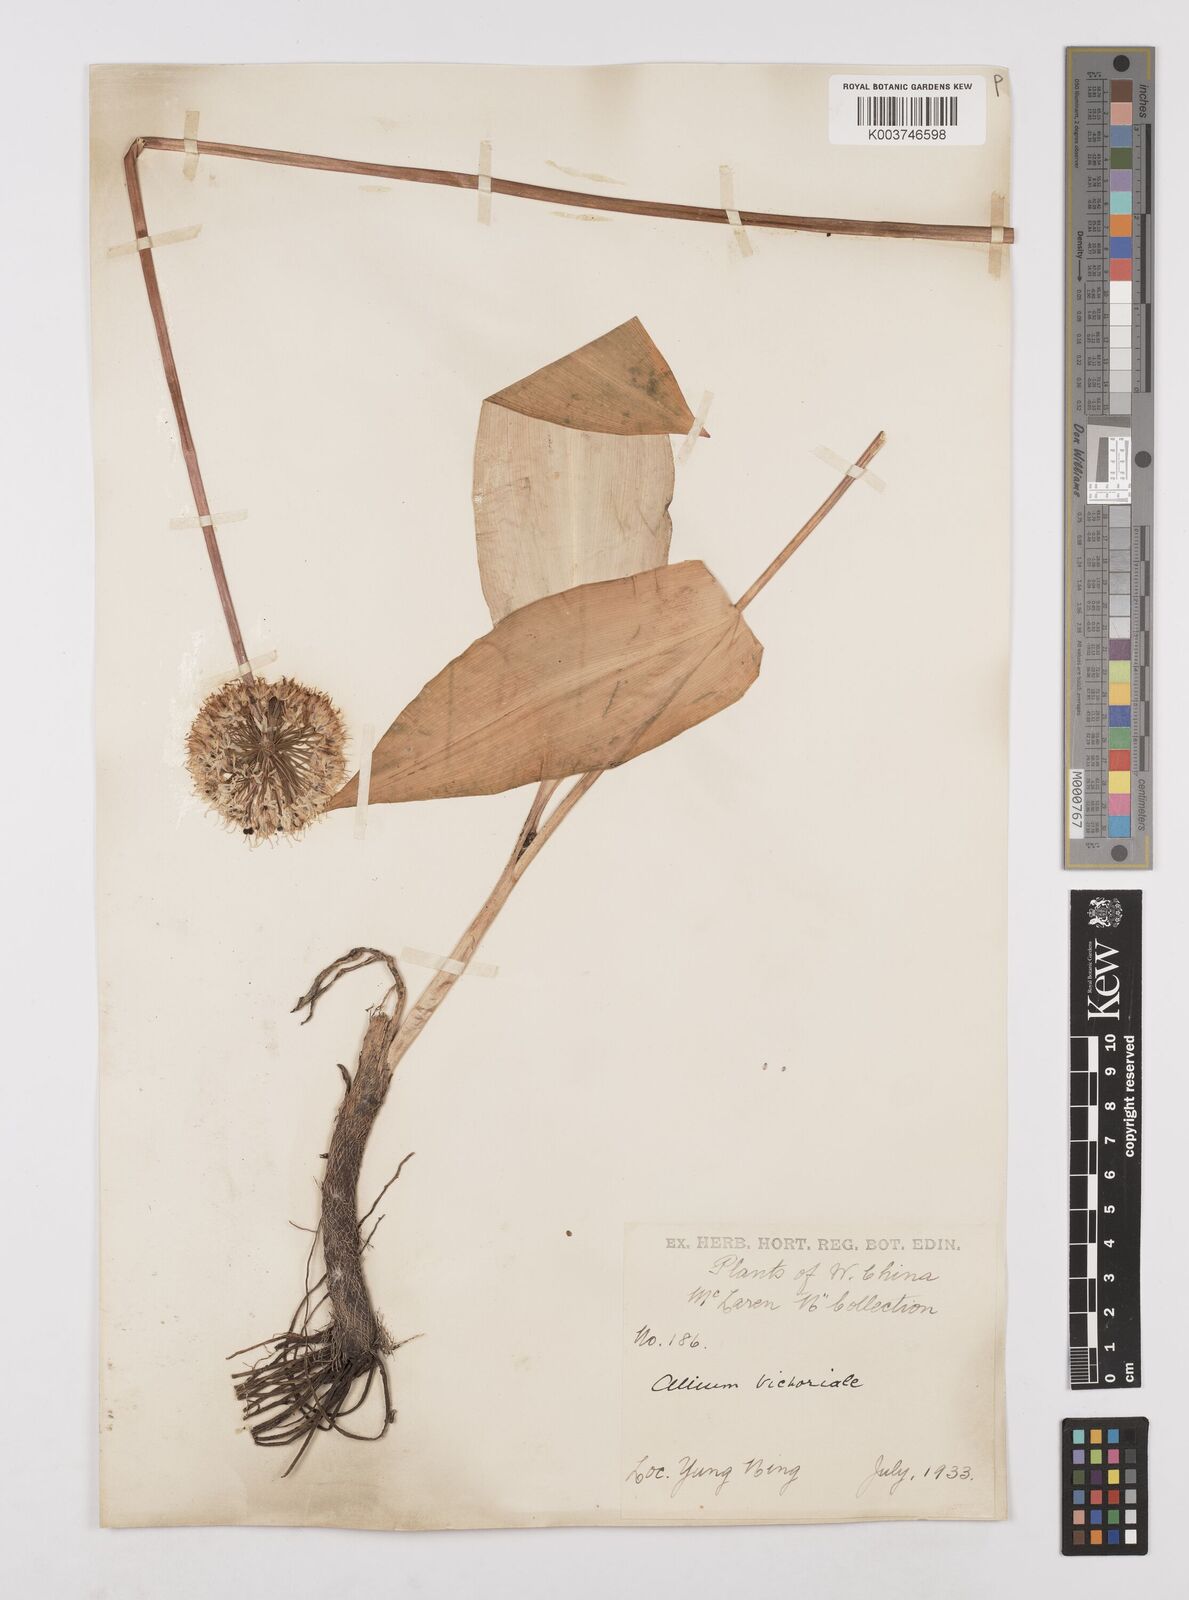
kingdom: Plantae
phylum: Tracheophyta
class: Liliopsida
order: Asparagales
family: Amaryllidaceae
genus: Allium
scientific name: Allium victorialis
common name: Alpine leek
